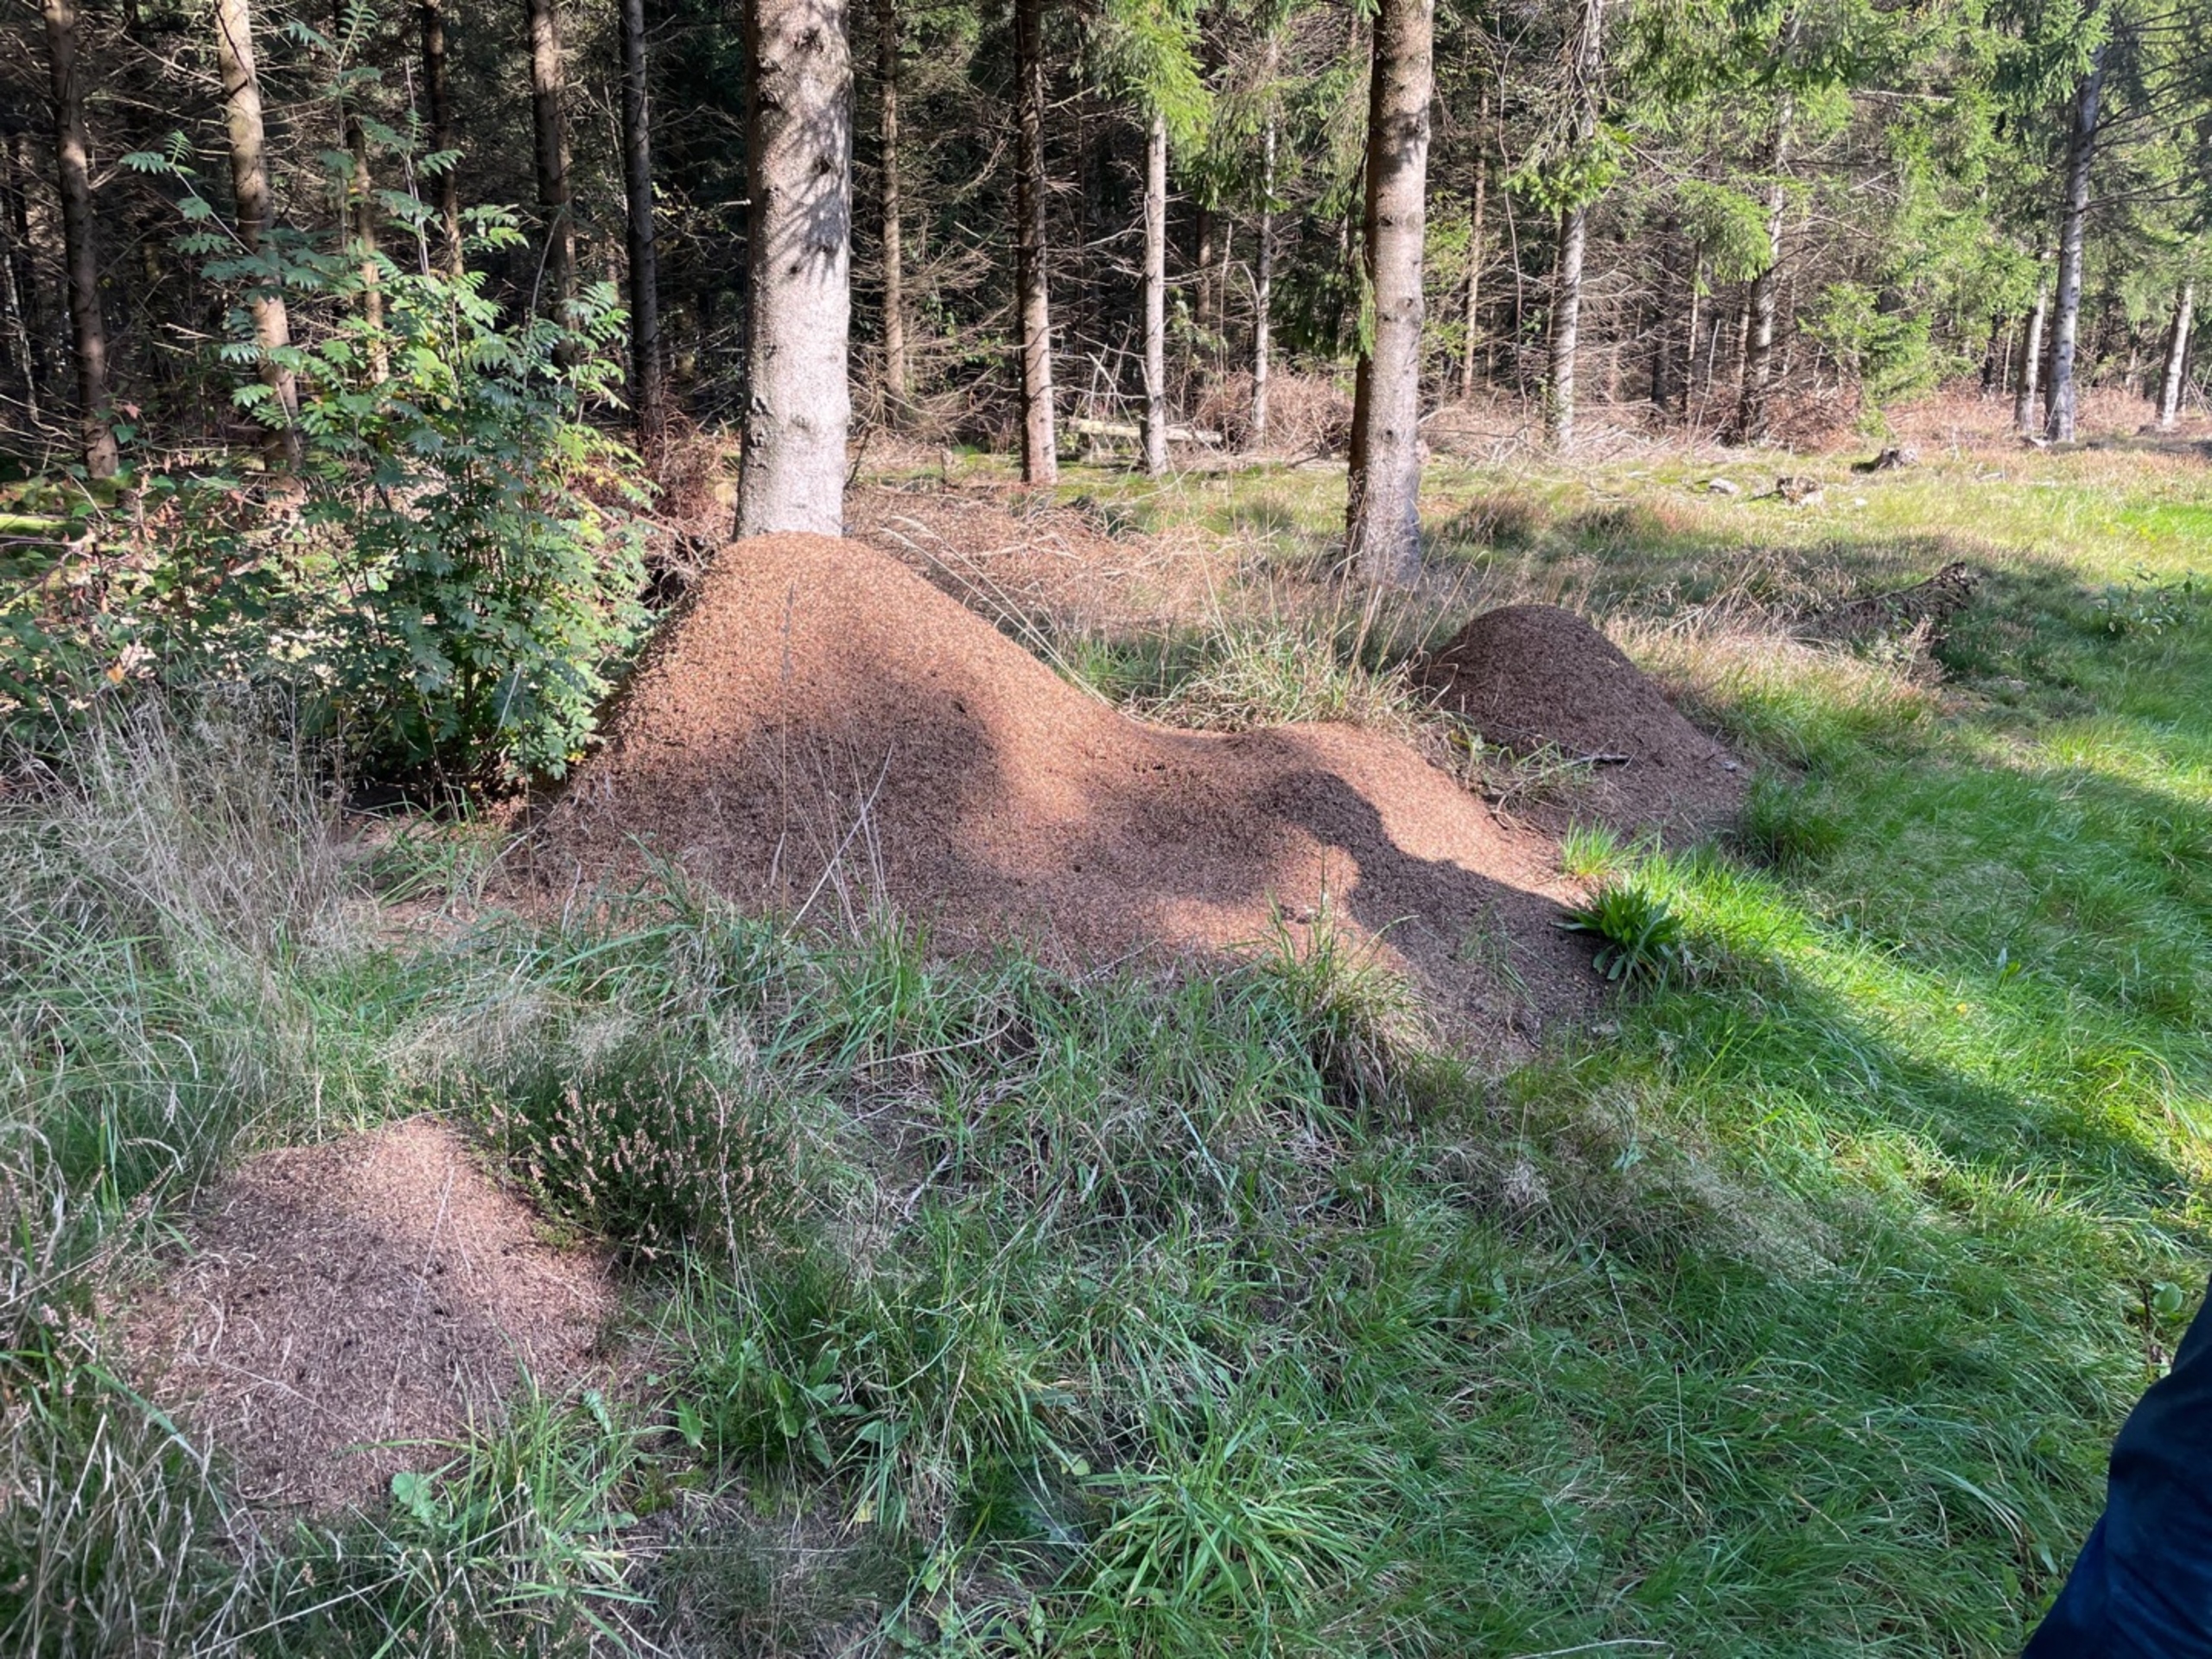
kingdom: Animalia
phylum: Arthropoda
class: Insecta
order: Hymenoptera
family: Formicidae
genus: Formica
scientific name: Formica
